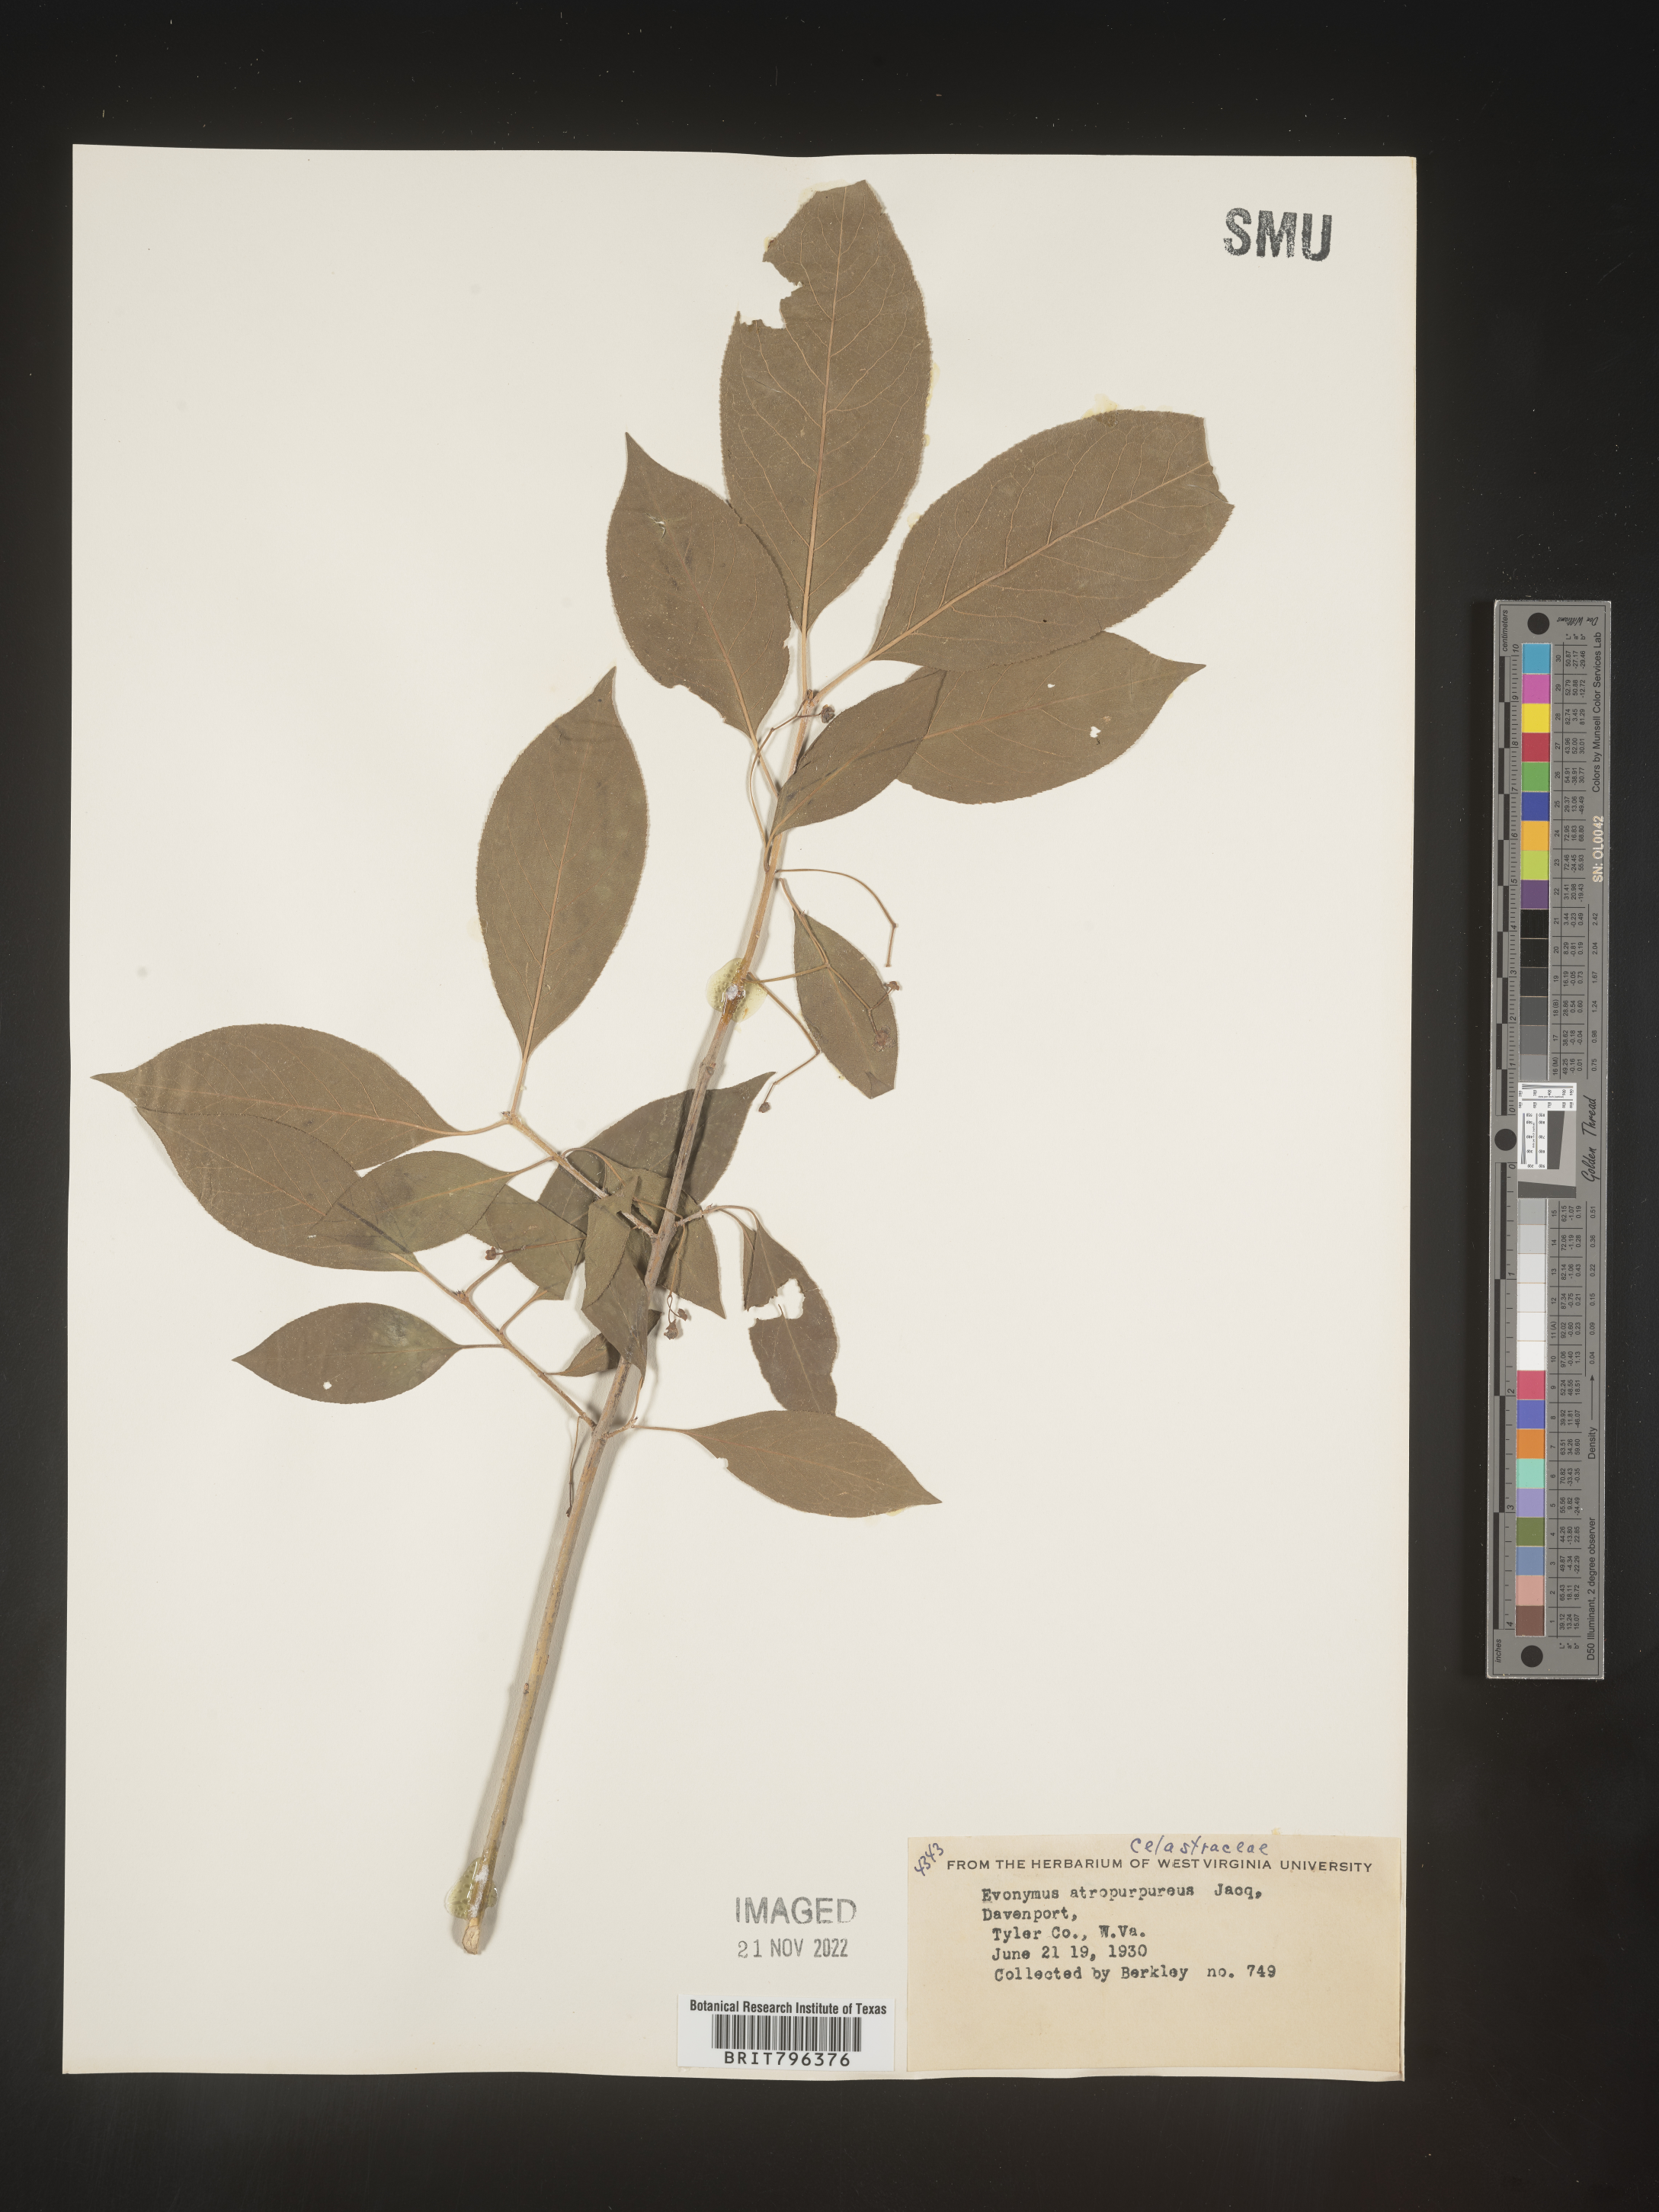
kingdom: Plantae
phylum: Tracheophyta
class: Magnoliopsida
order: Celastrales
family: Celastraceae
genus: Euonymus
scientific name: Euonymus atropurpureus
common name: Eastern wahoo
